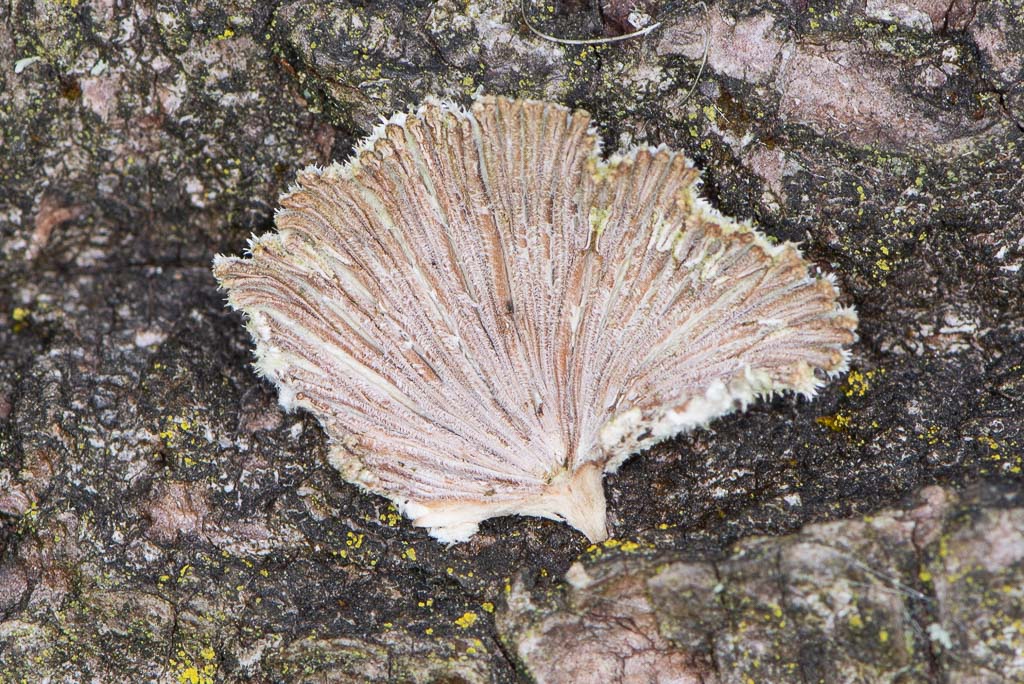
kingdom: Fungi
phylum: Basidiomycota
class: Agaricomycetes
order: Agaricales
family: Schizophyllaceae
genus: Schizophyllum
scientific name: Schizophyllum commune
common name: kløvblad
